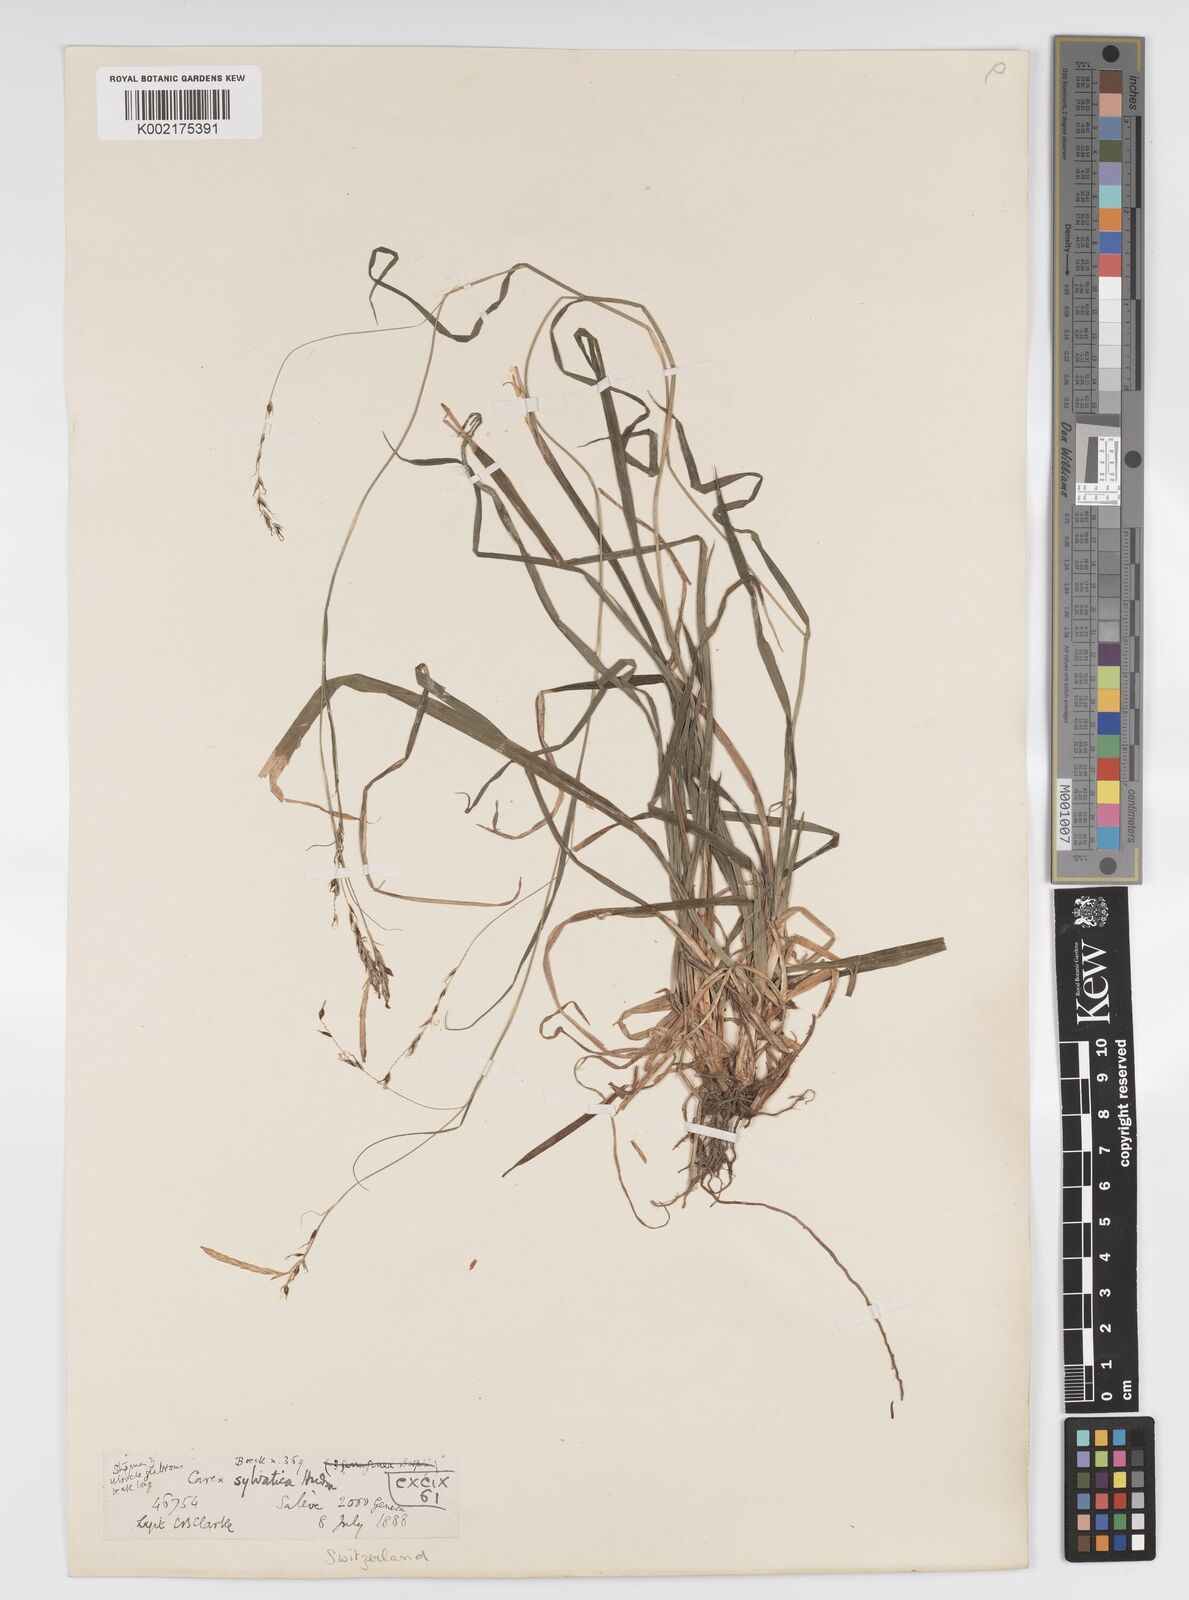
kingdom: Plantae
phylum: Tracheophyta
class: Liliopsida
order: Poales
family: Cyperaceae
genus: Carex
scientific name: Carex sylvatica
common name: Wood-sedge
